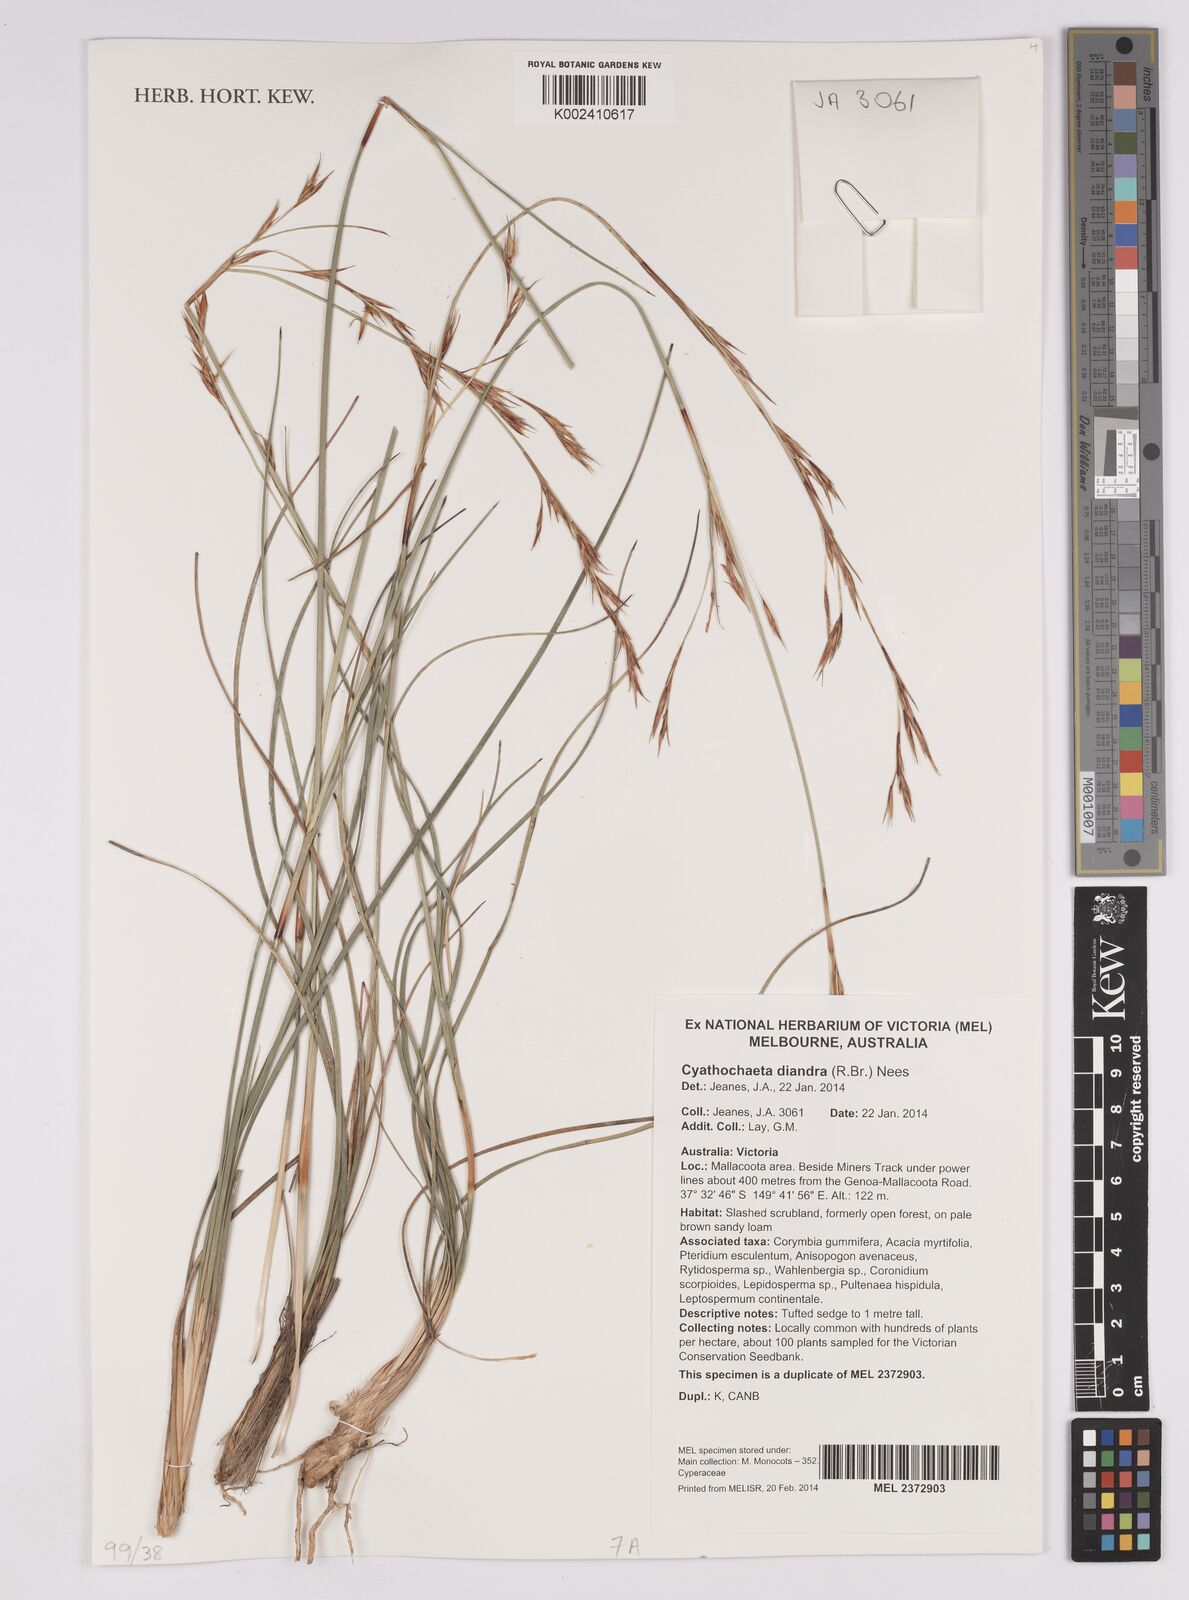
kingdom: Plantae
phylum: Tracheophyta
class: Liliopsida
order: Poales
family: Cyperaceae
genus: Cyathochaeta
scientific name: Cyathochaeta diandra
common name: Sheath rush
